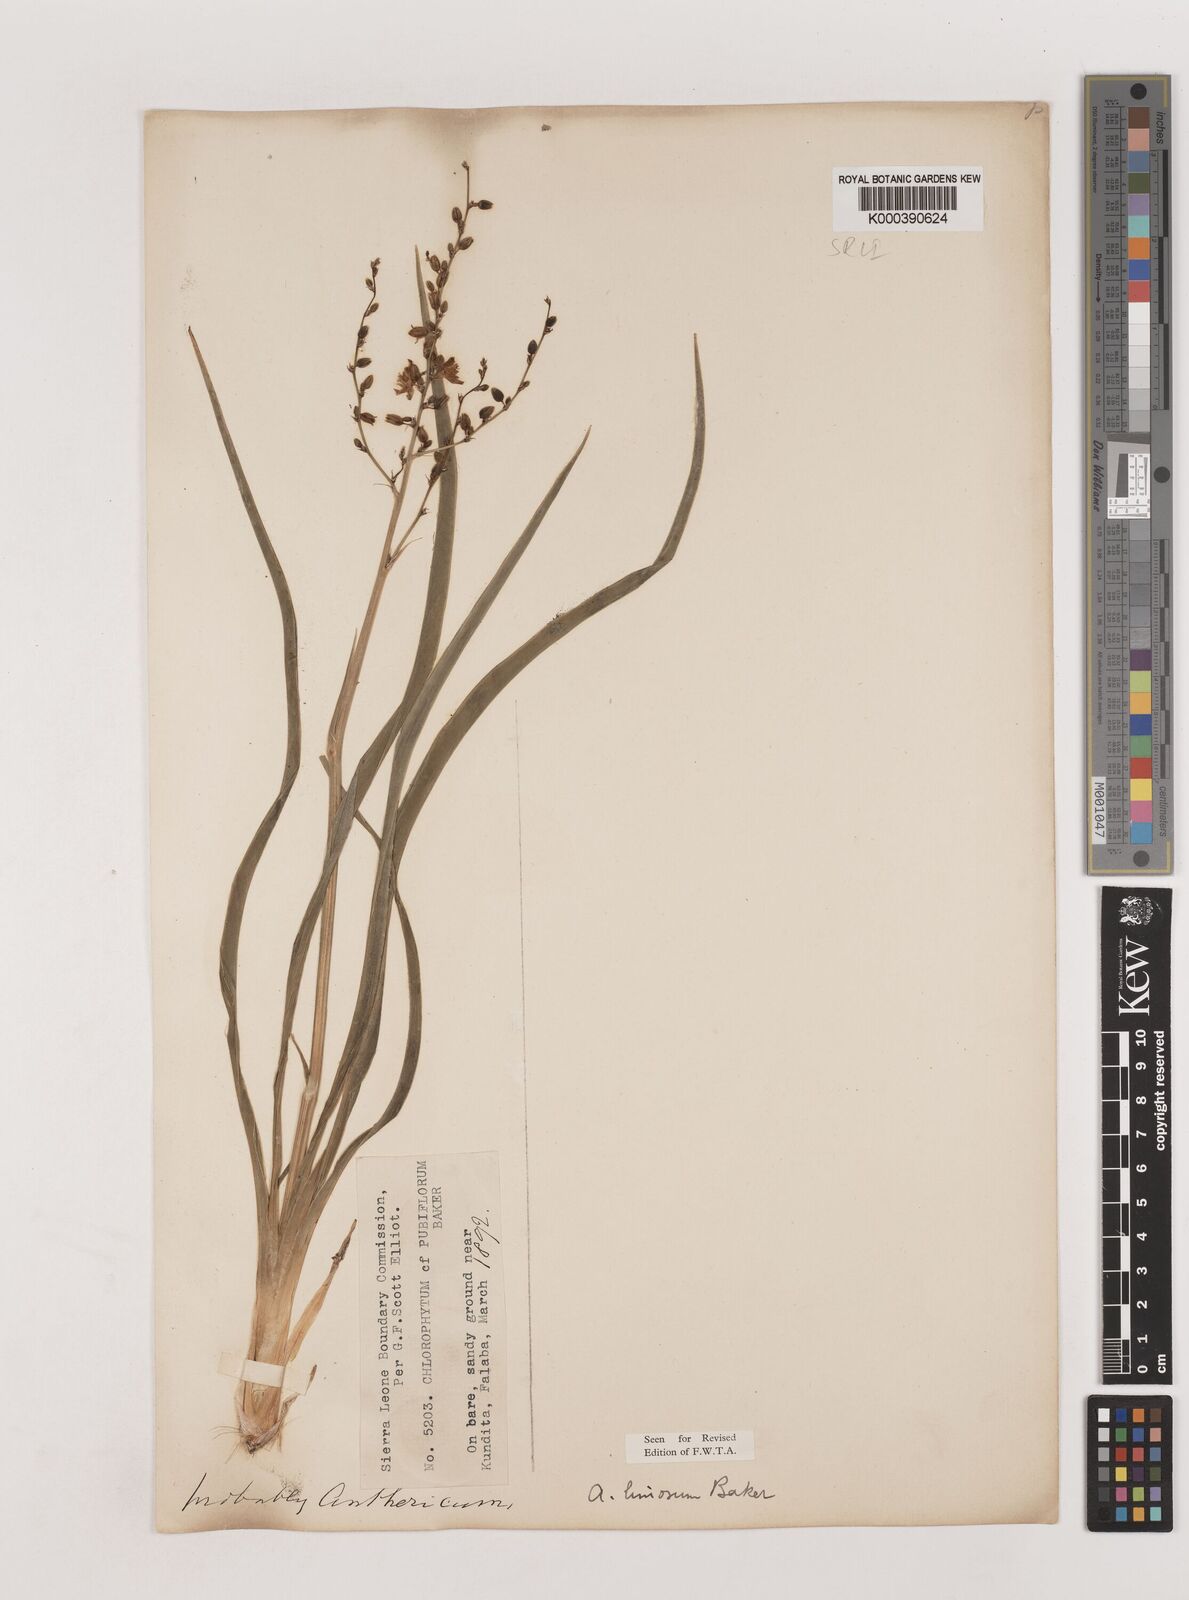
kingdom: Plantae
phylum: Tracheophyta
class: Liliopsida
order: Asparagales
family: Asparagaceae
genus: Chlorophytum
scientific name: Chlorophytum limosum
